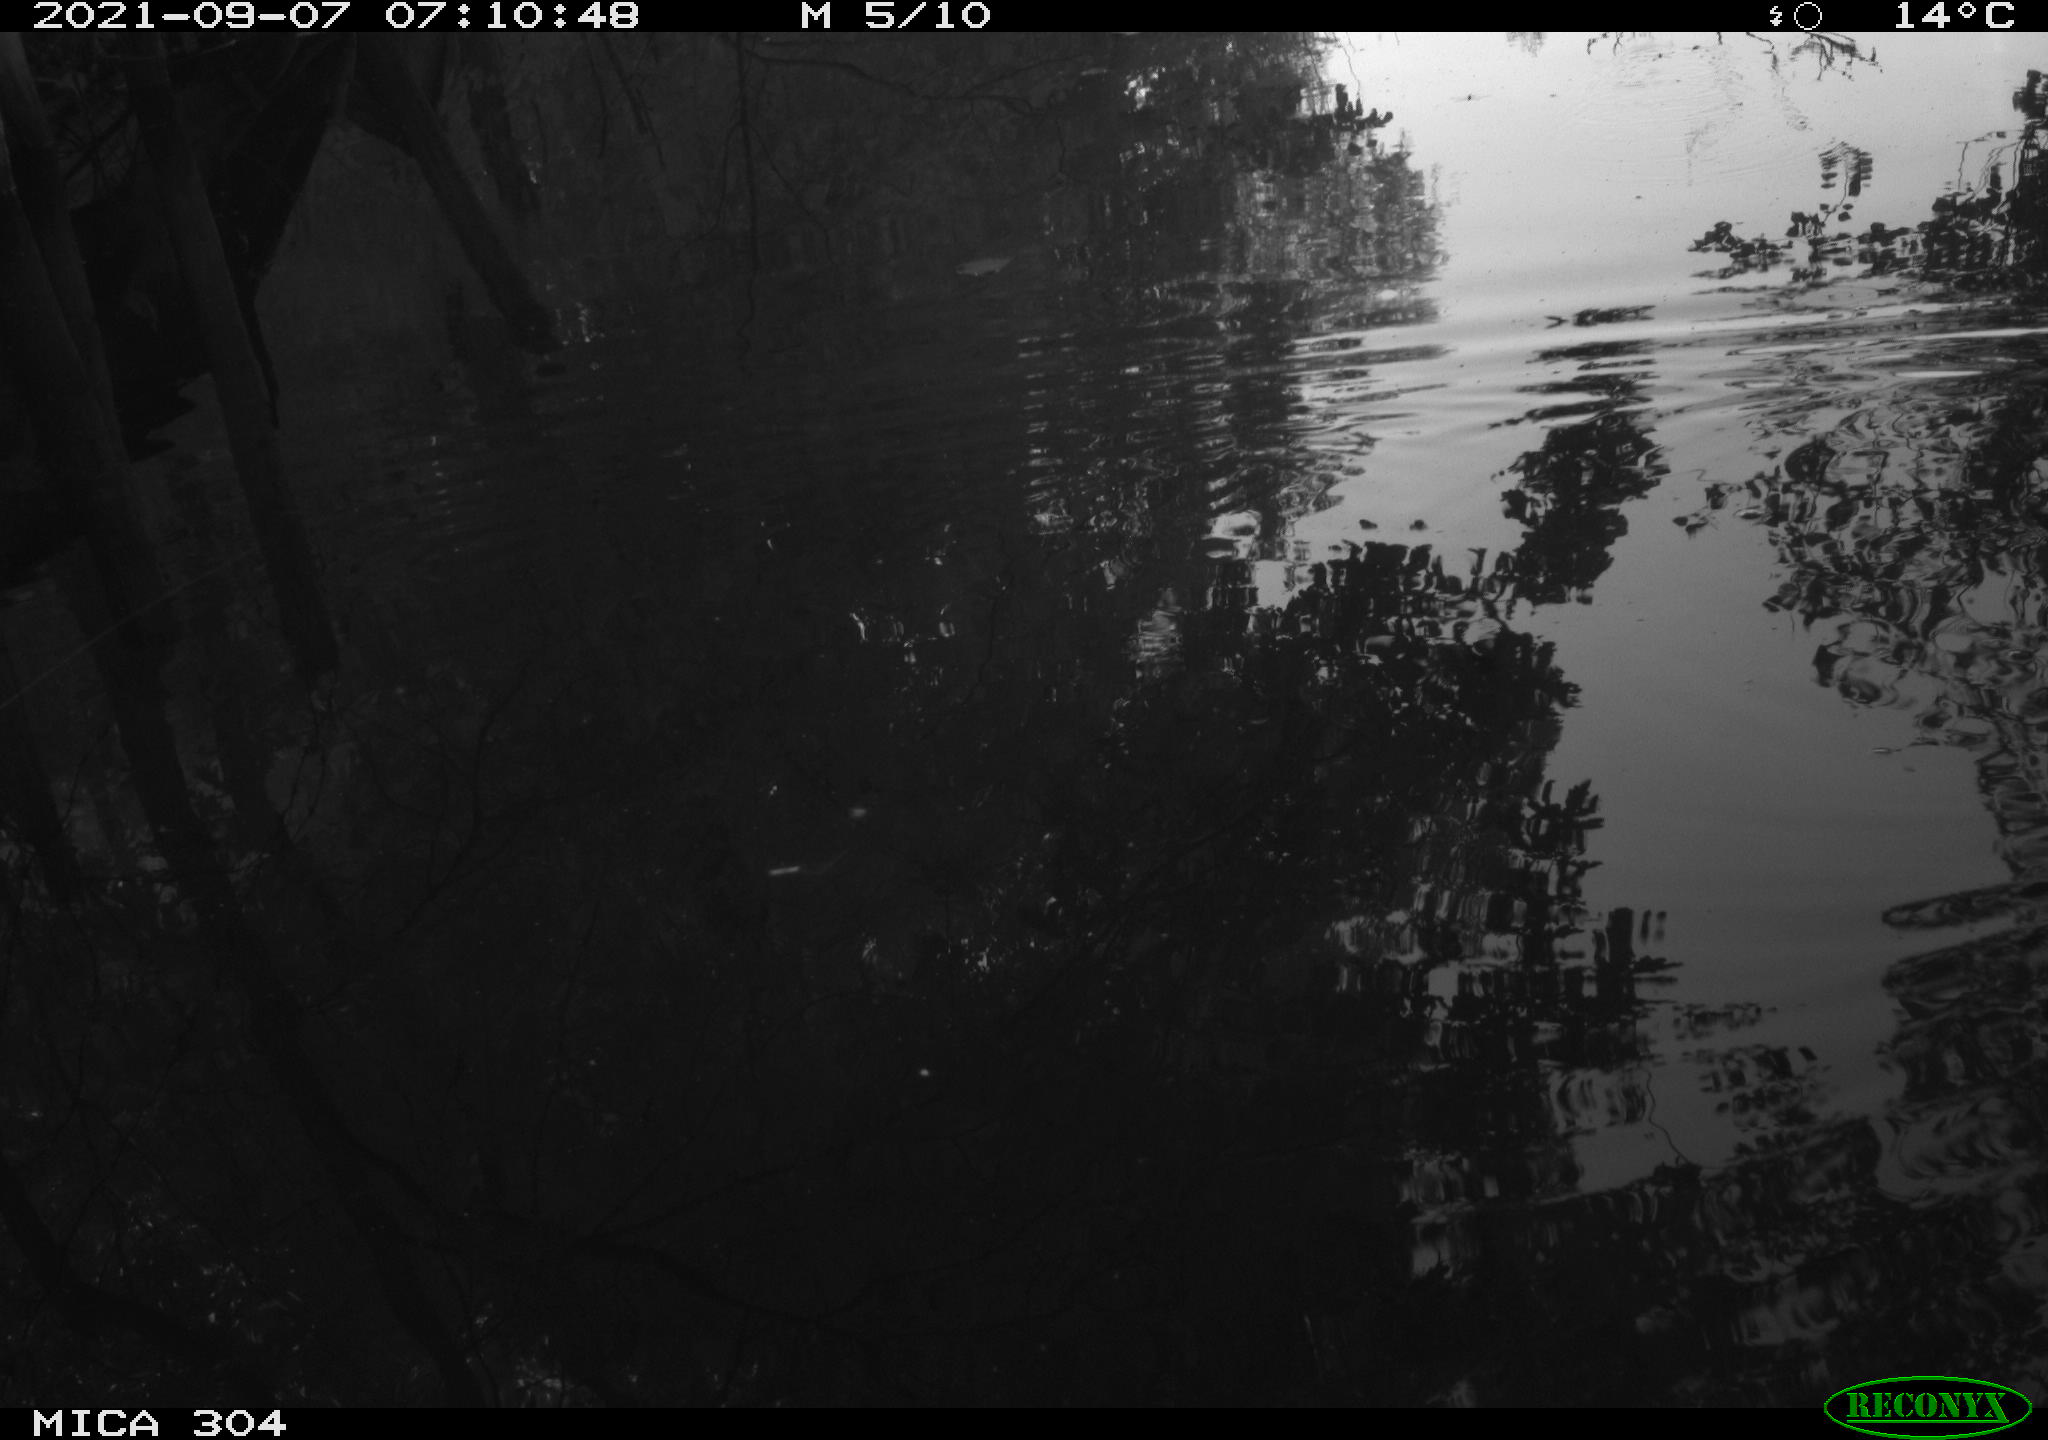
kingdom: Animalia
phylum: Chordata
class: Aves
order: Gruiformes
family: Rallidae
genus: Gallinula
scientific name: Gallinula chloropus
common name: Common moorhen
